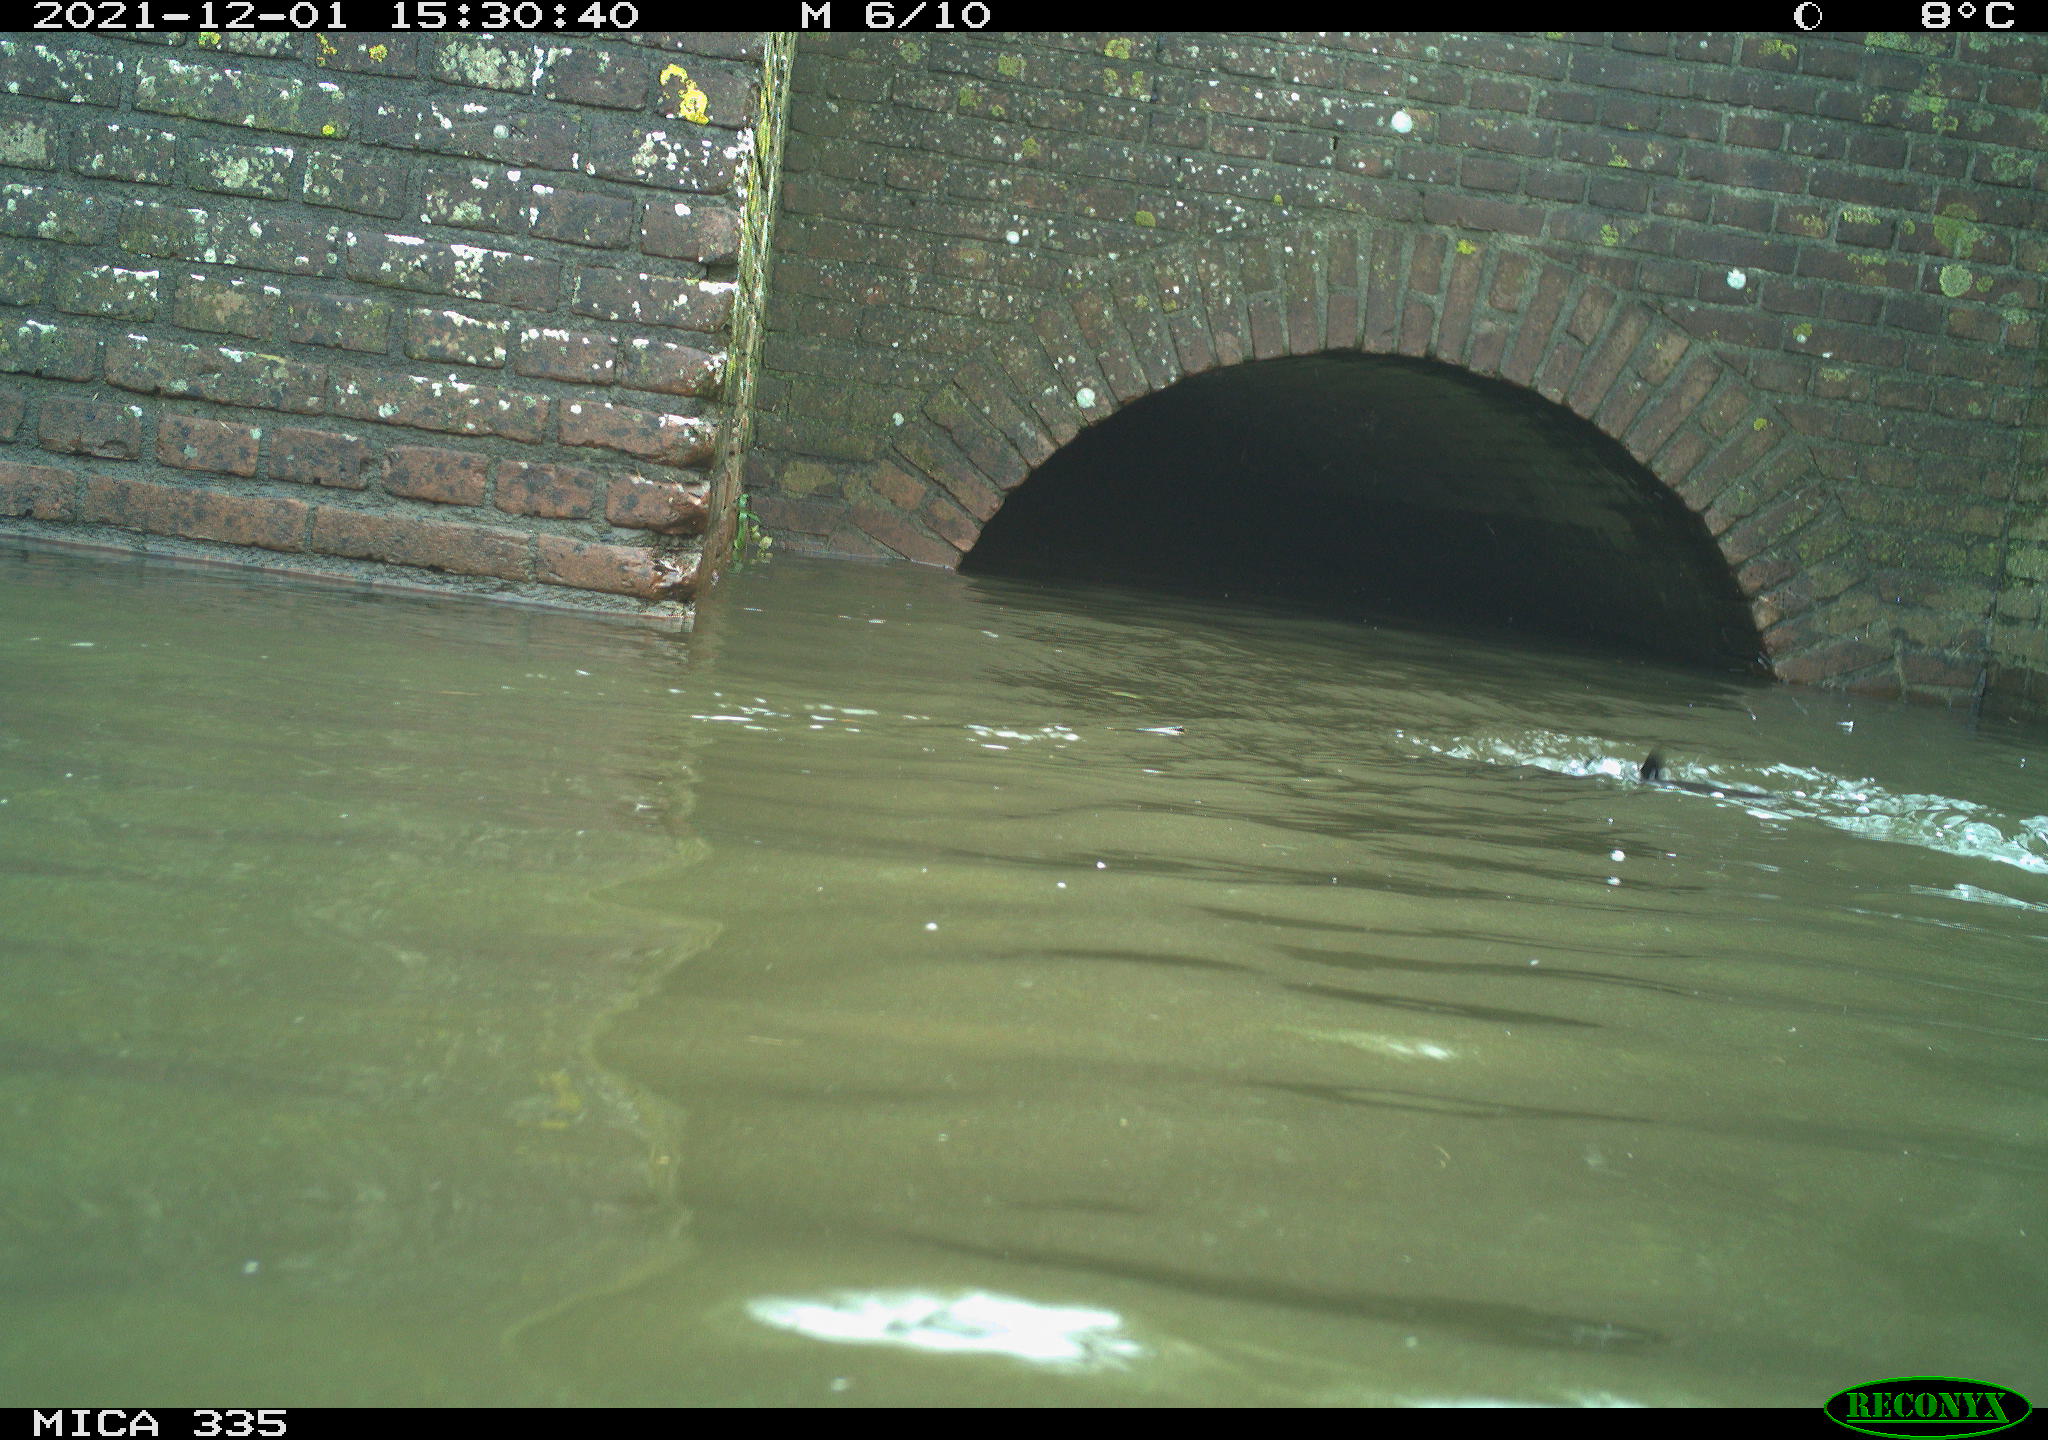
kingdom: Animalia
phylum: Chordata
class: Aves
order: Suliformes
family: Phalacrocoracidae
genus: Phalacrocorax
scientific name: Phalacrocorax carbo
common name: Great cormorant
